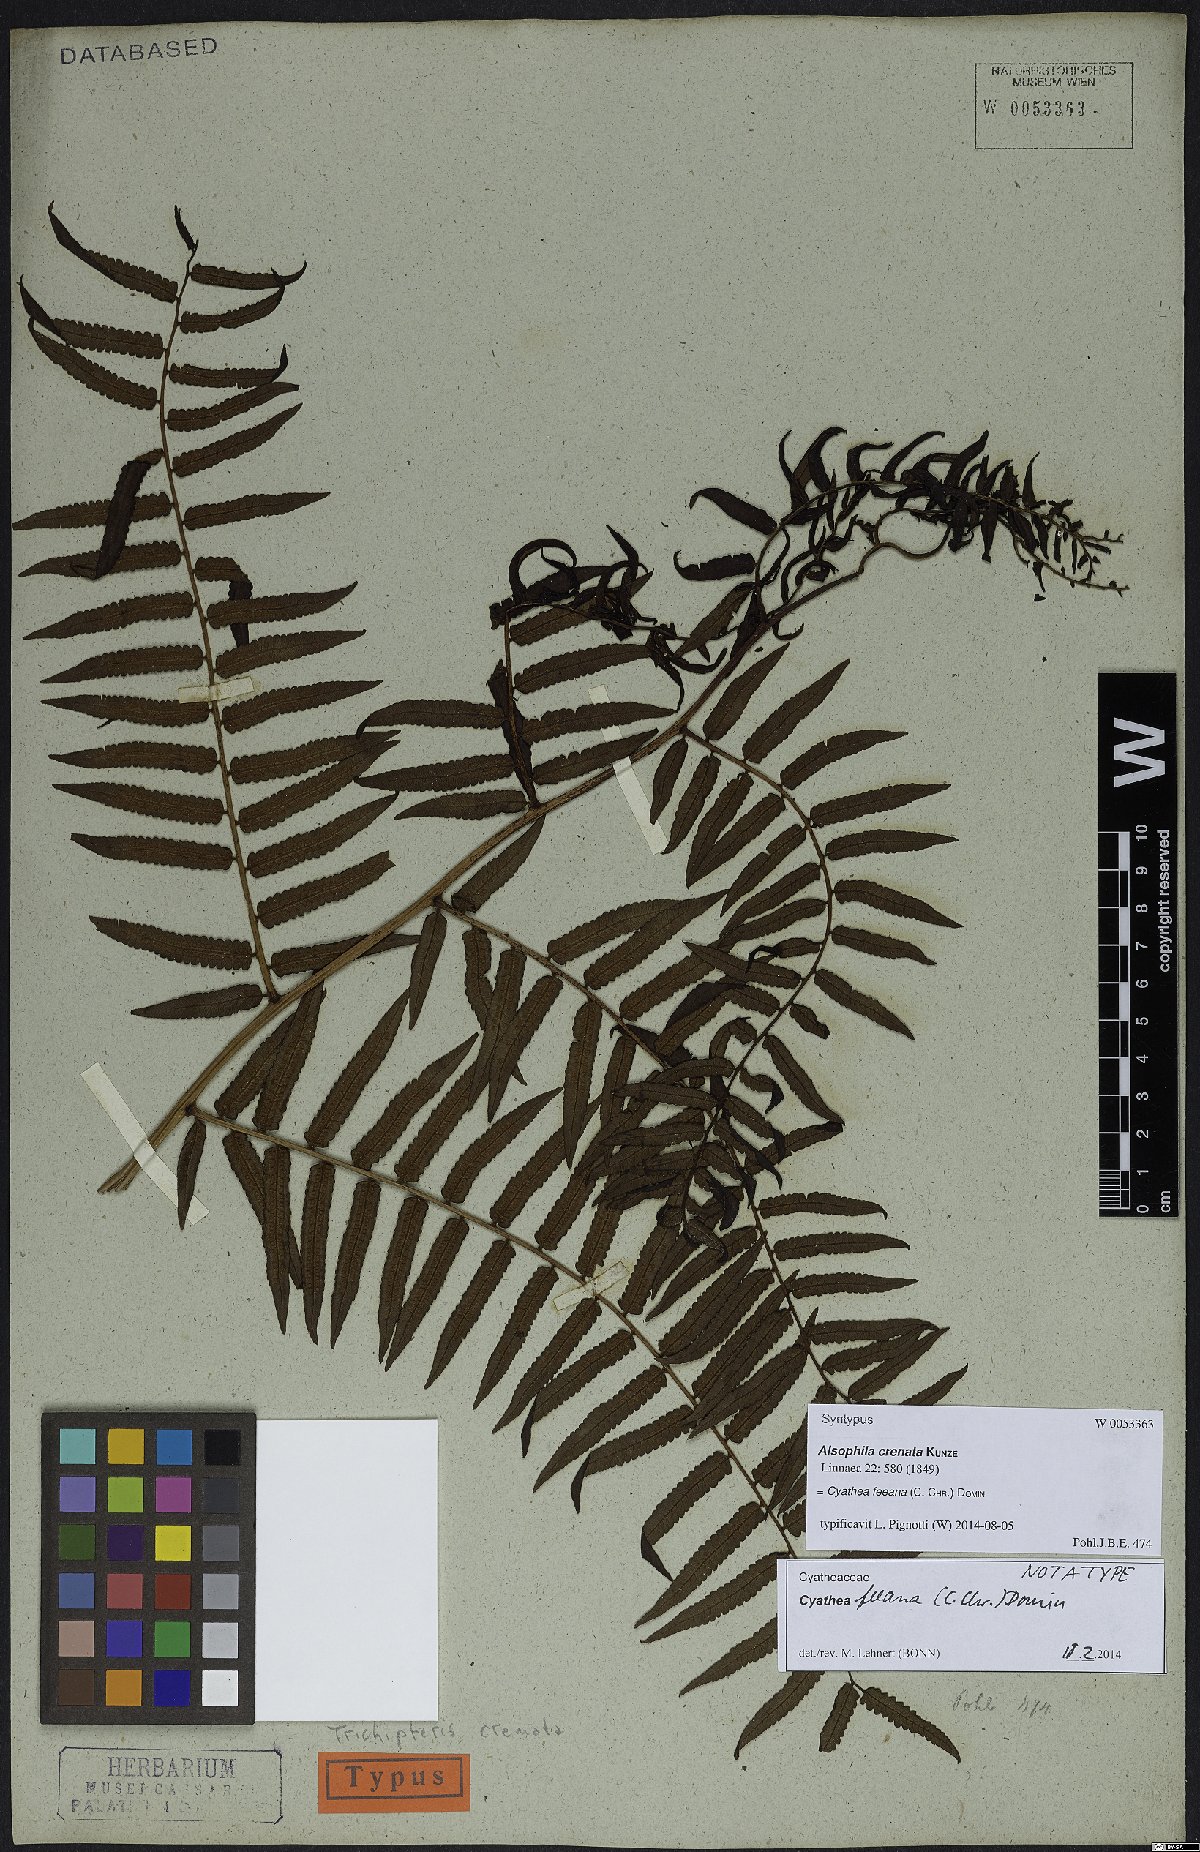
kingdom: Plantae
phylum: Tracheophyta
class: Polypodiopsida
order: Cyatheales
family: Cyatheaceae
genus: Cyathea
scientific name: Cyathea feeana
